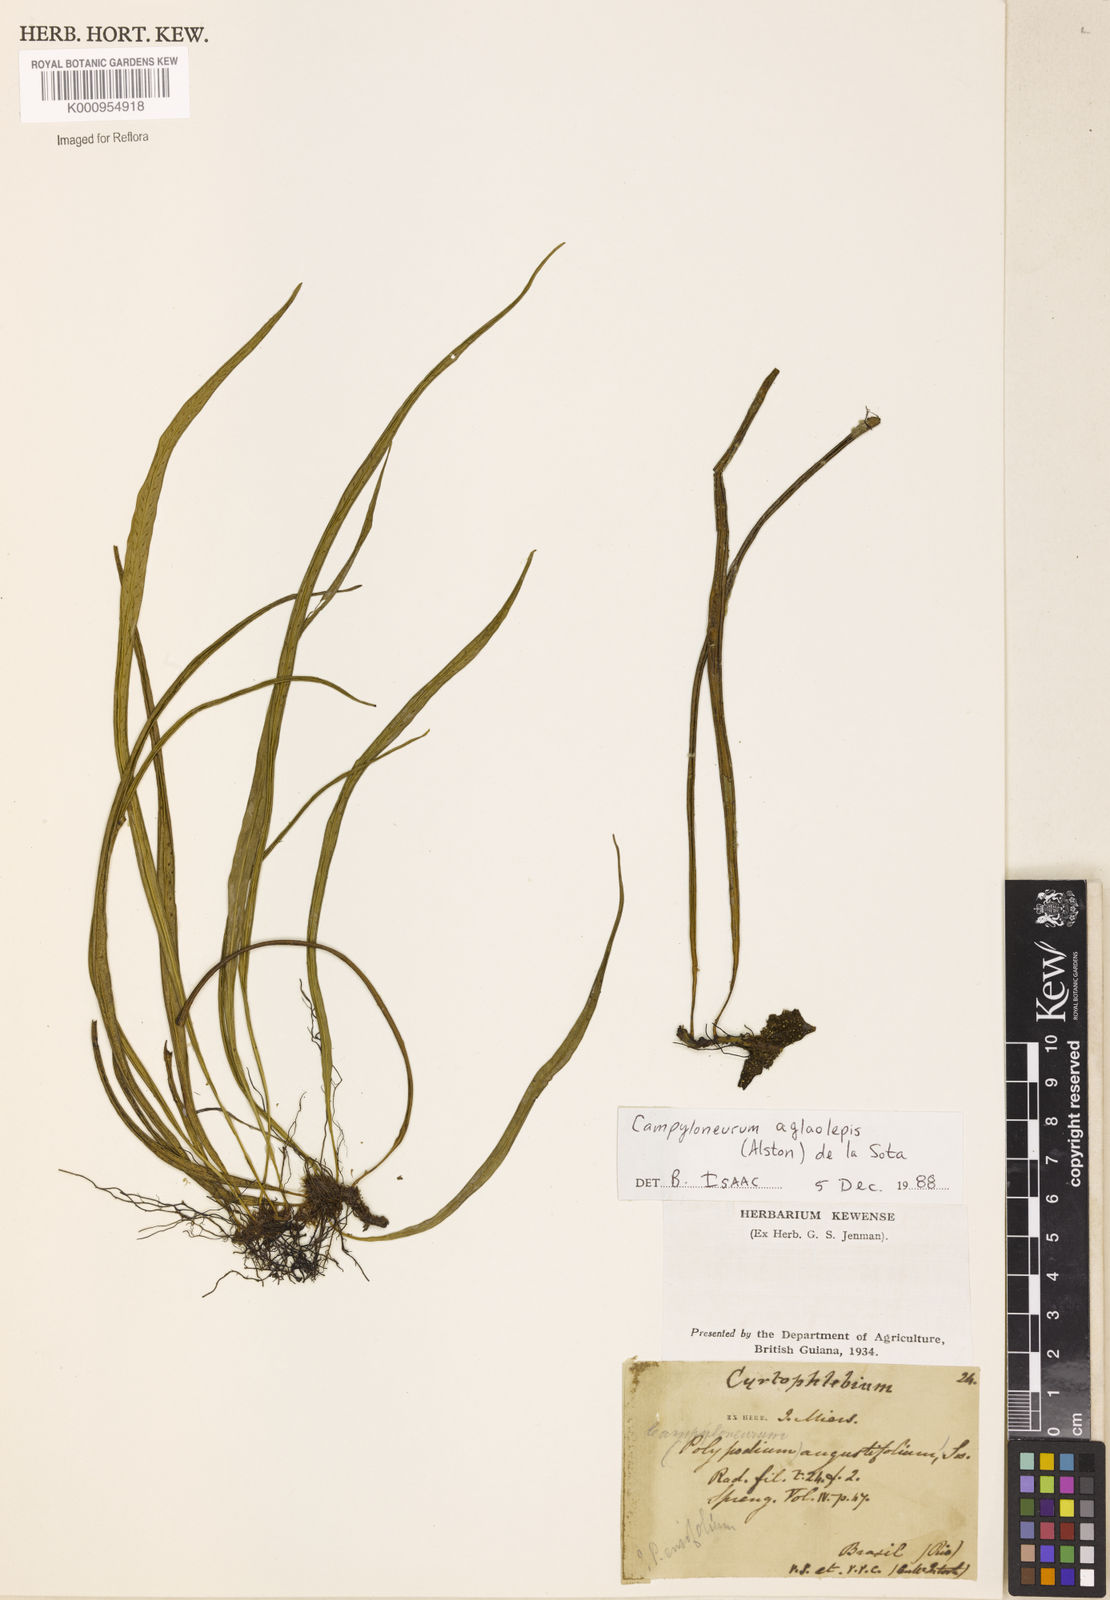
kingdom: Plantae
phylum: Tracheophyta
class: Polypodiopsida
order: Polypodiales
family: Polypodiaceae
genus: Campyloneurum
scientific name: Campyloneurum
